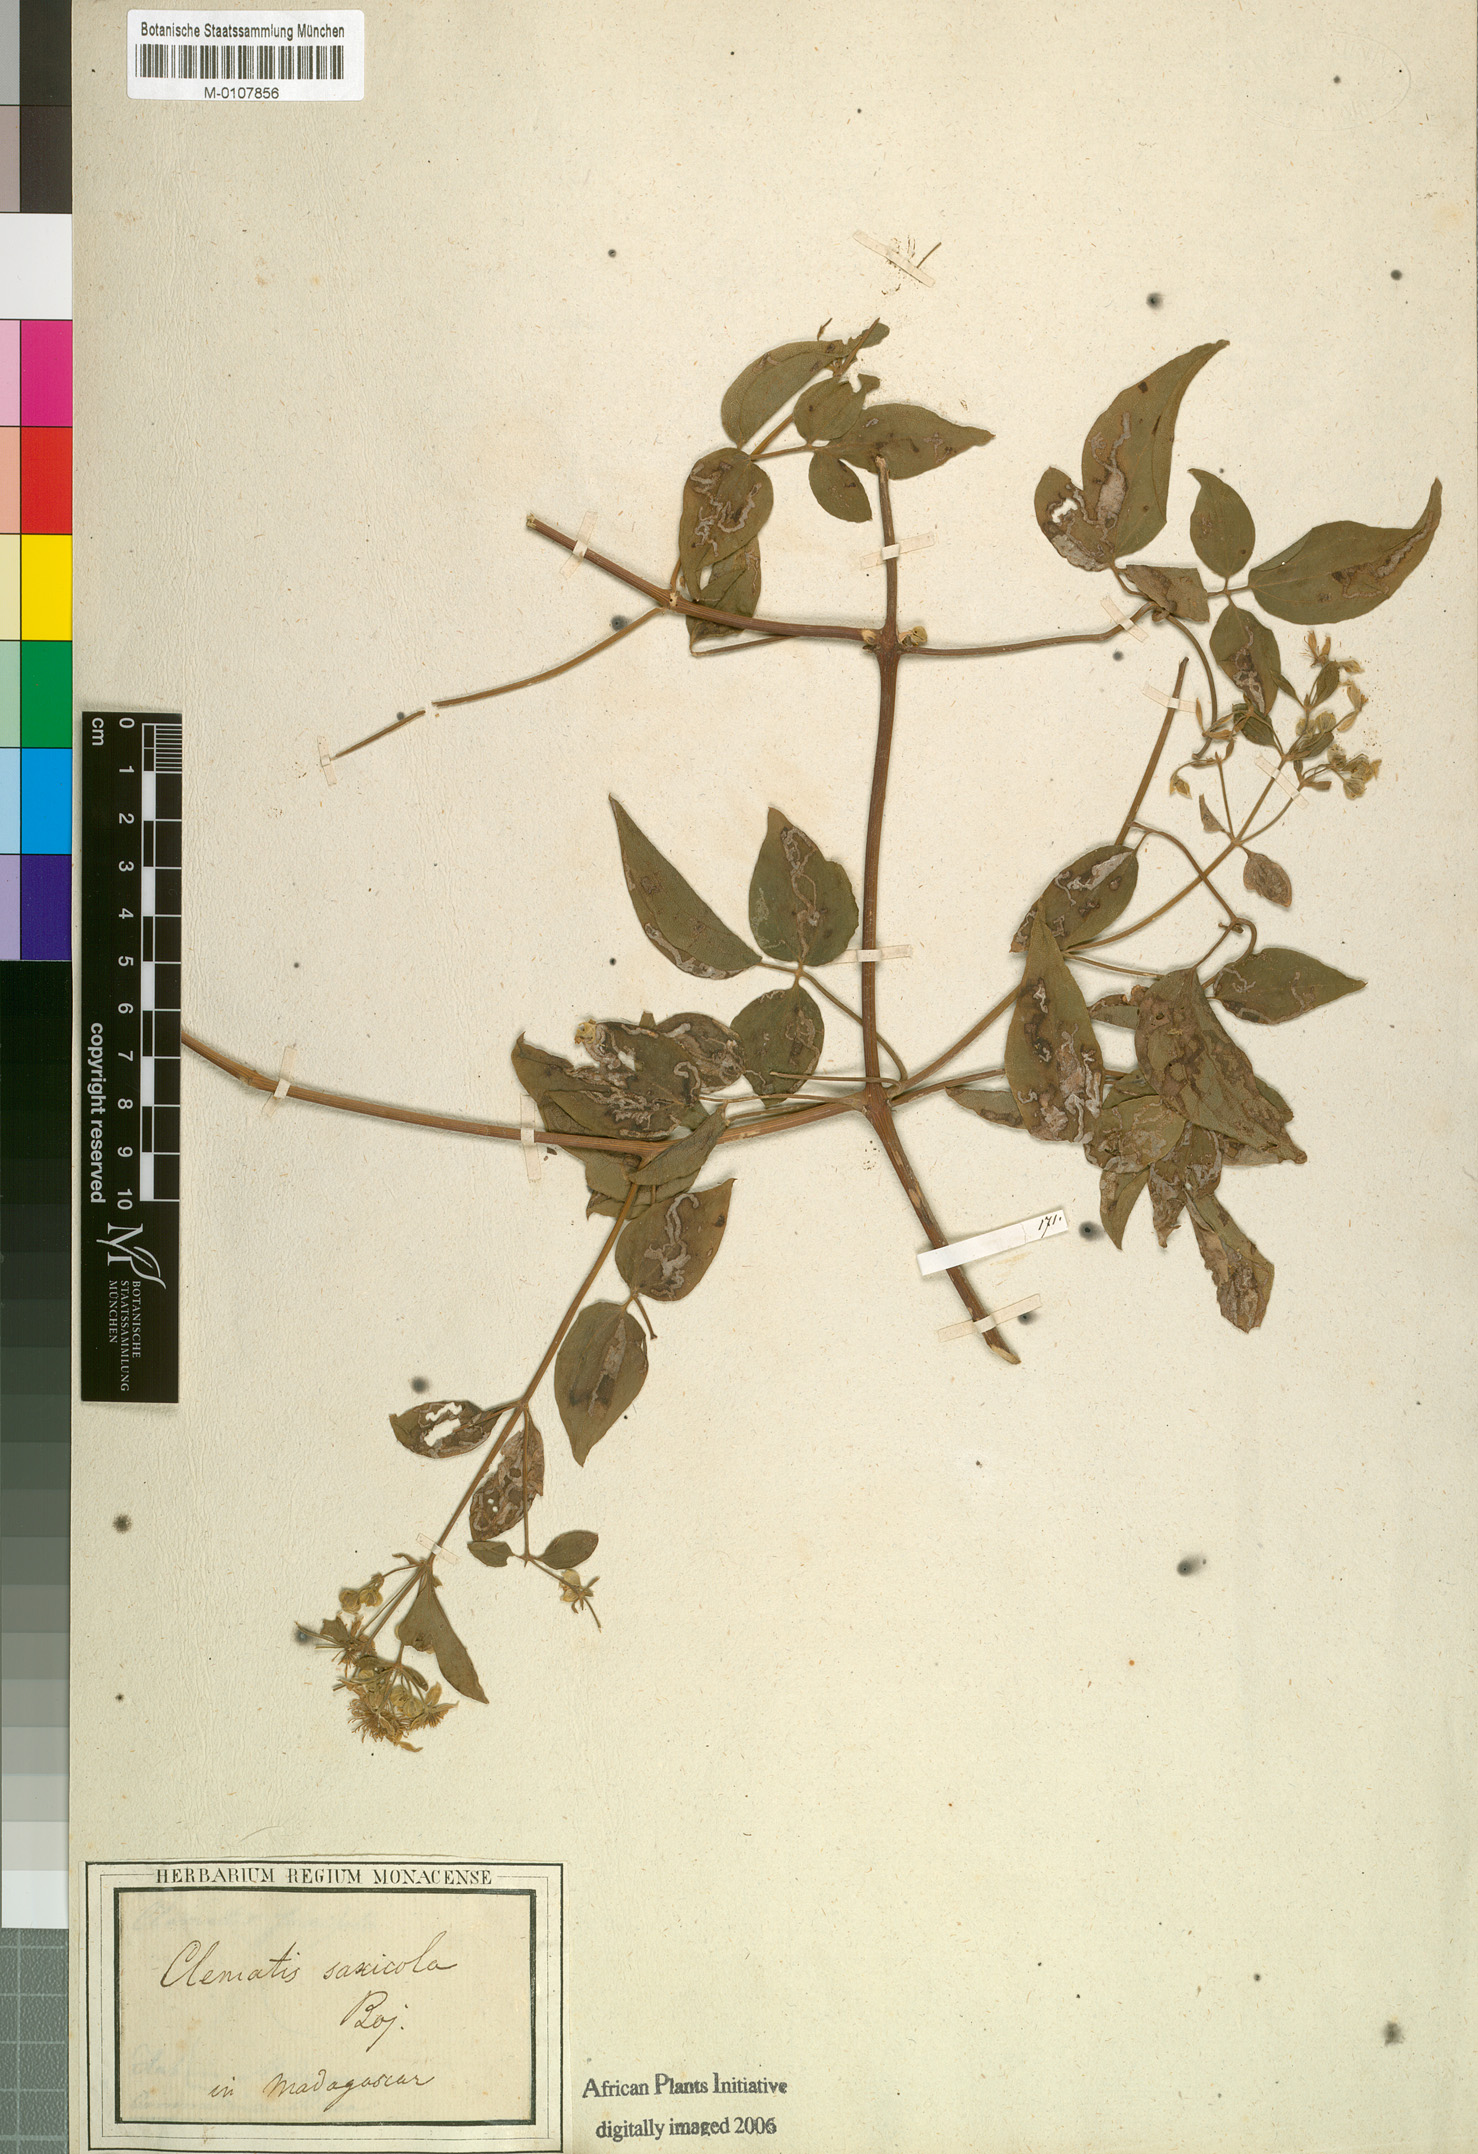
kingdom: Plantae
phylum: Tracheophyta
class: Magnoliopsida
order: Ranunculales
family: Ranunculaceae
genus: Clematis
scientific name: Clematis ibarensis
